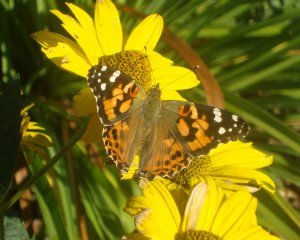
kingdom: Animalia
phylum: Arthropoda
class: Insecta
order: Lepidoptera
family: Nymphalidae
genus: Vanessa
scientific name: Vanessa cardui
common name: Painted Lady
